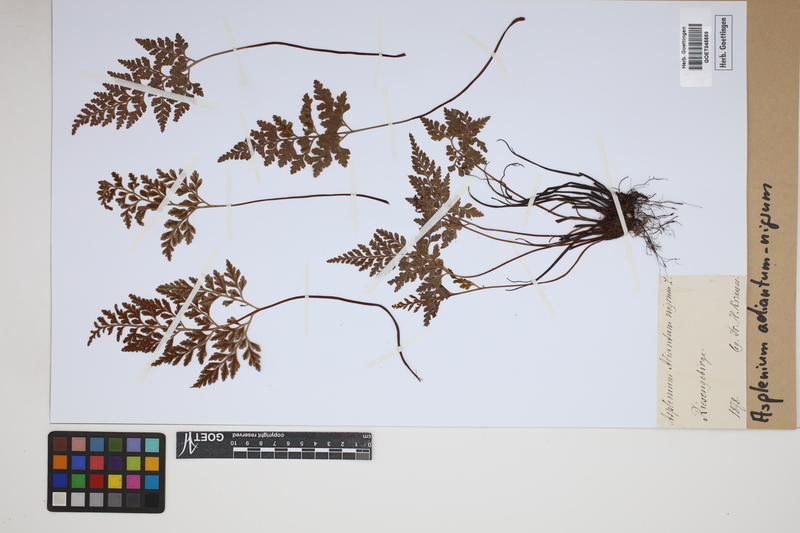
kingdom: Plantae
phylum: Tracheophyta
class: Polypodiopsida
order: Polypodiales
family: Aspleniaceae
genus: Asplenium
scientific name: Asplenium adiantum-nigrum
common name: Black spleenwort
